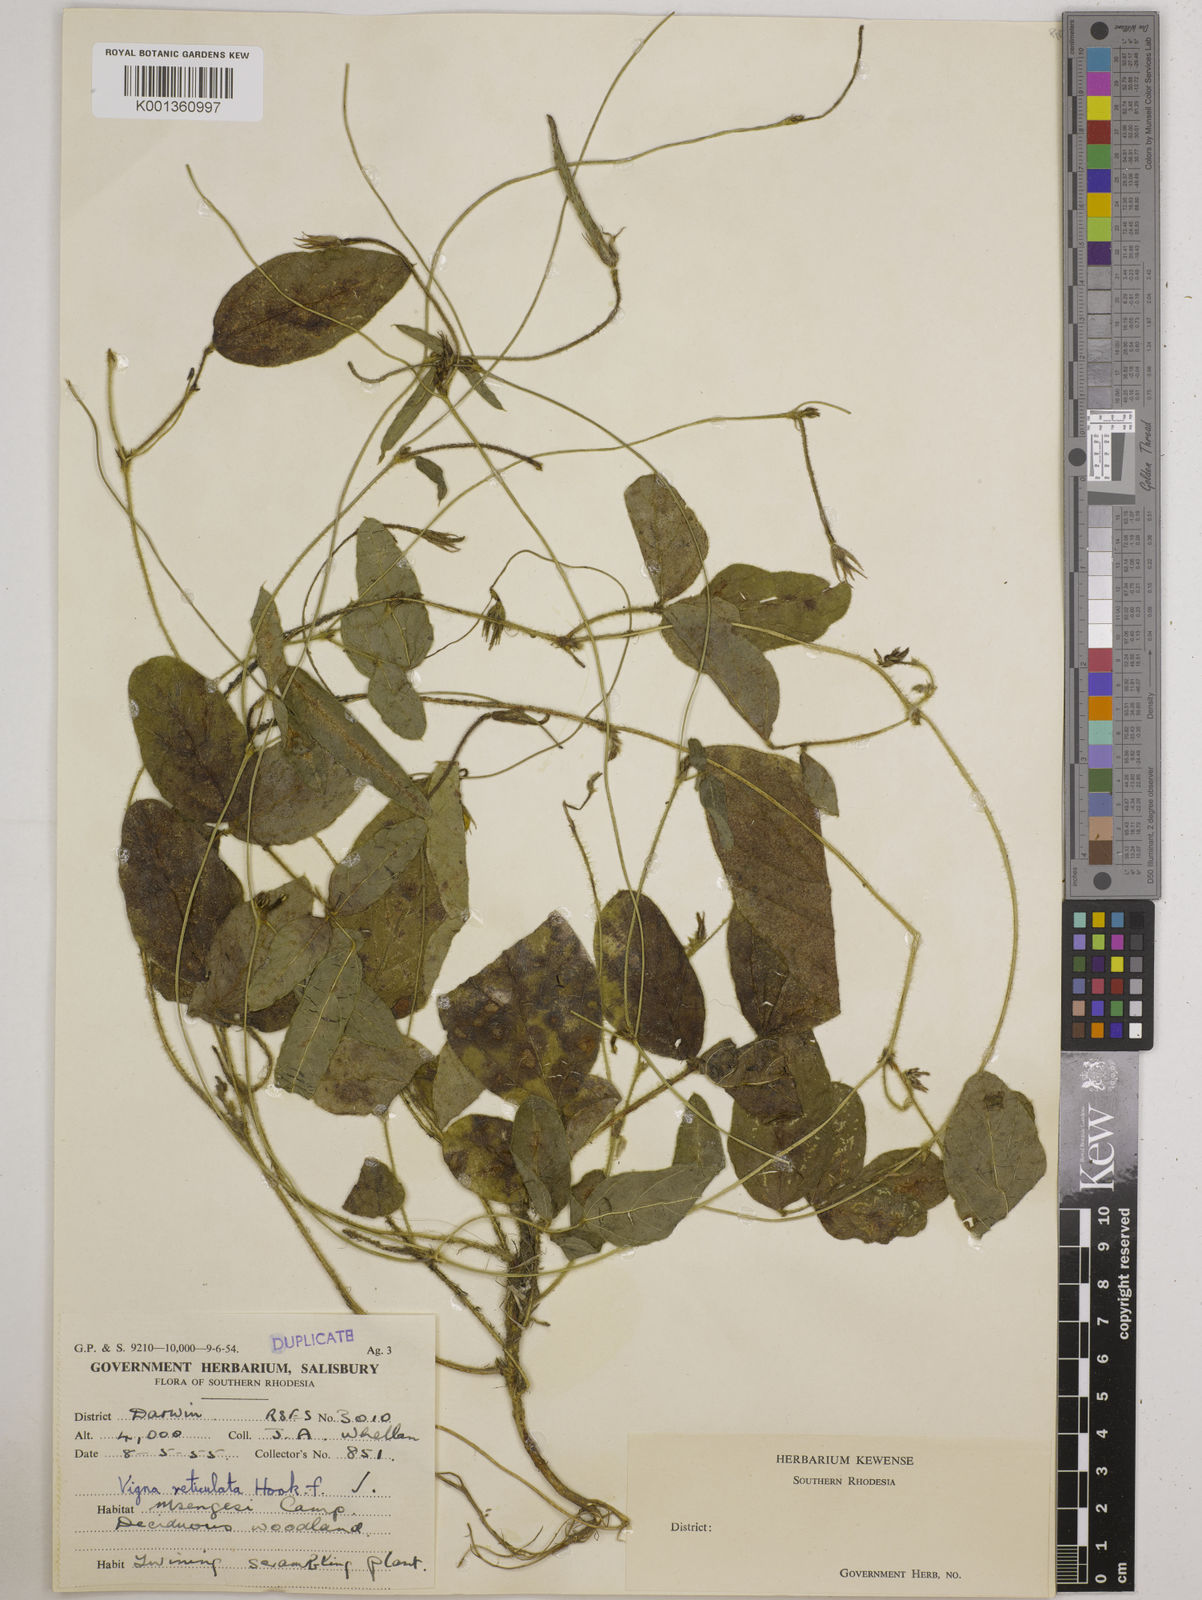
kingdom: Plantae
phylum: Tracheophyta
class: Magnoliopsida
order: Fabales
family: Fabaceae
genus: Vigna
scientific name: Vigna reticulata
